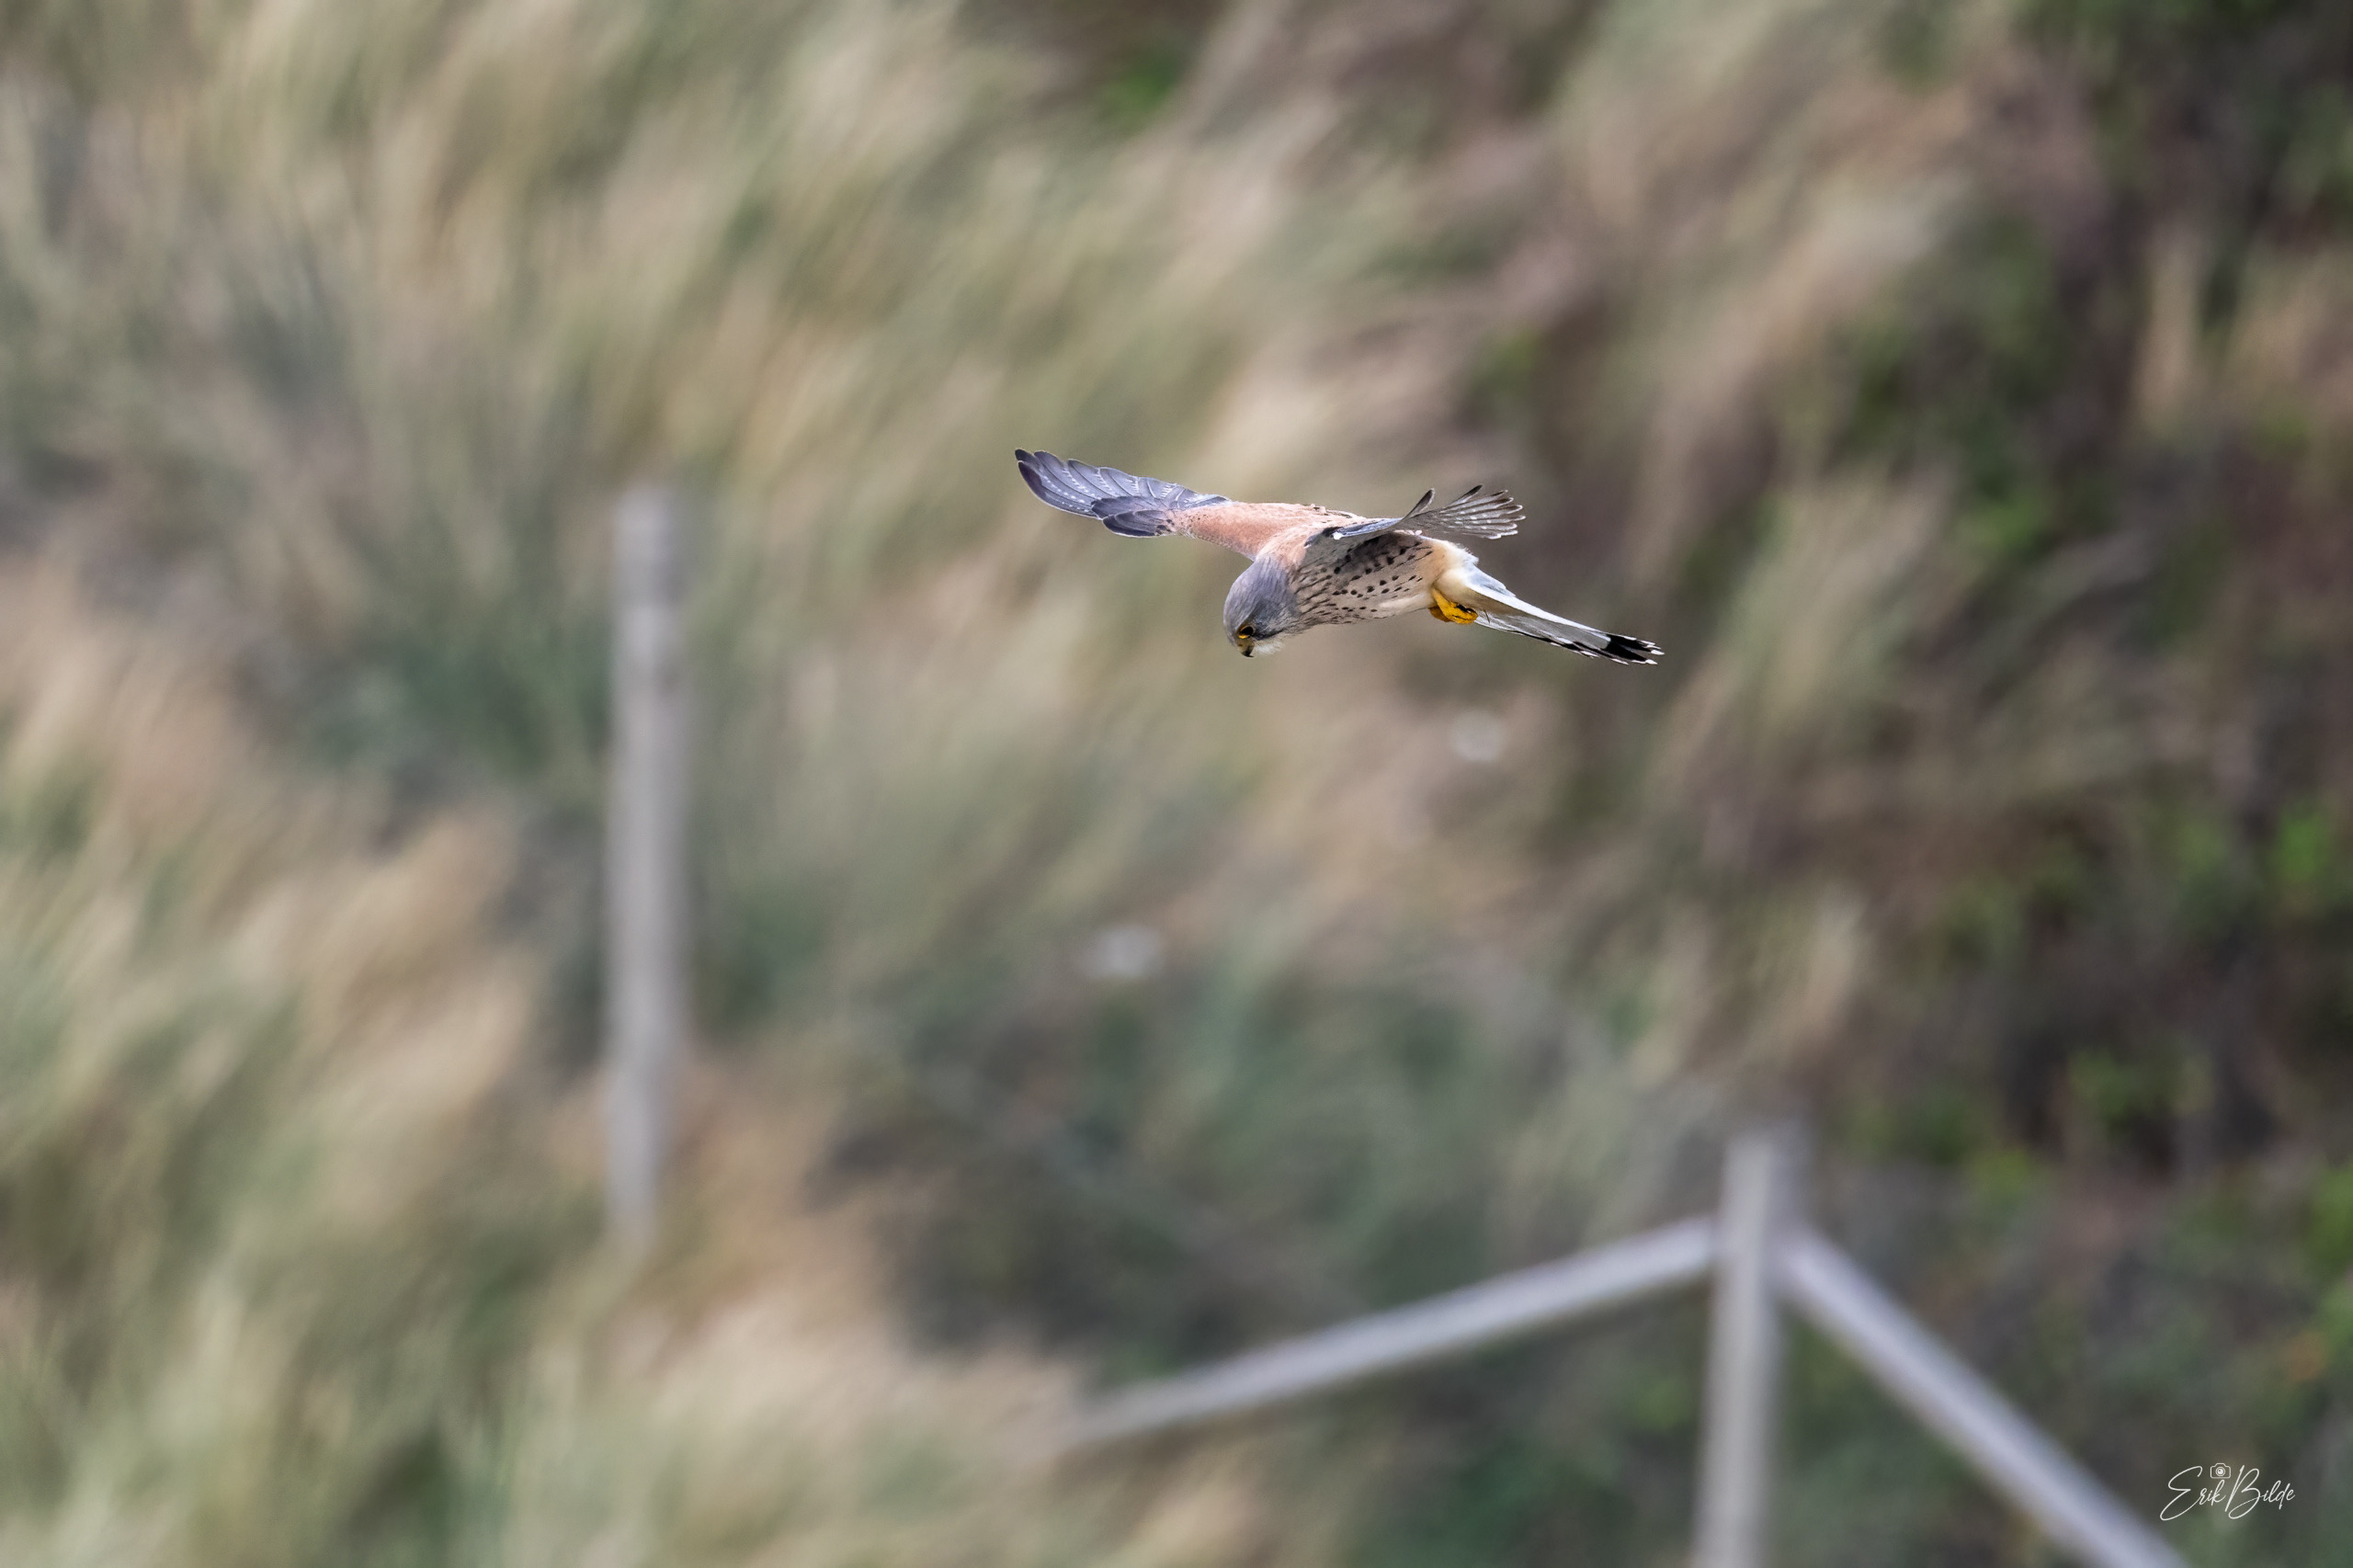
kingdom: Animalia
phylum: Chordata
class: Aves
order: Falconiformes
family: Falconidae
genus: Falco
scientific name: Falco tinnunculus
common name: Tårnfalk
